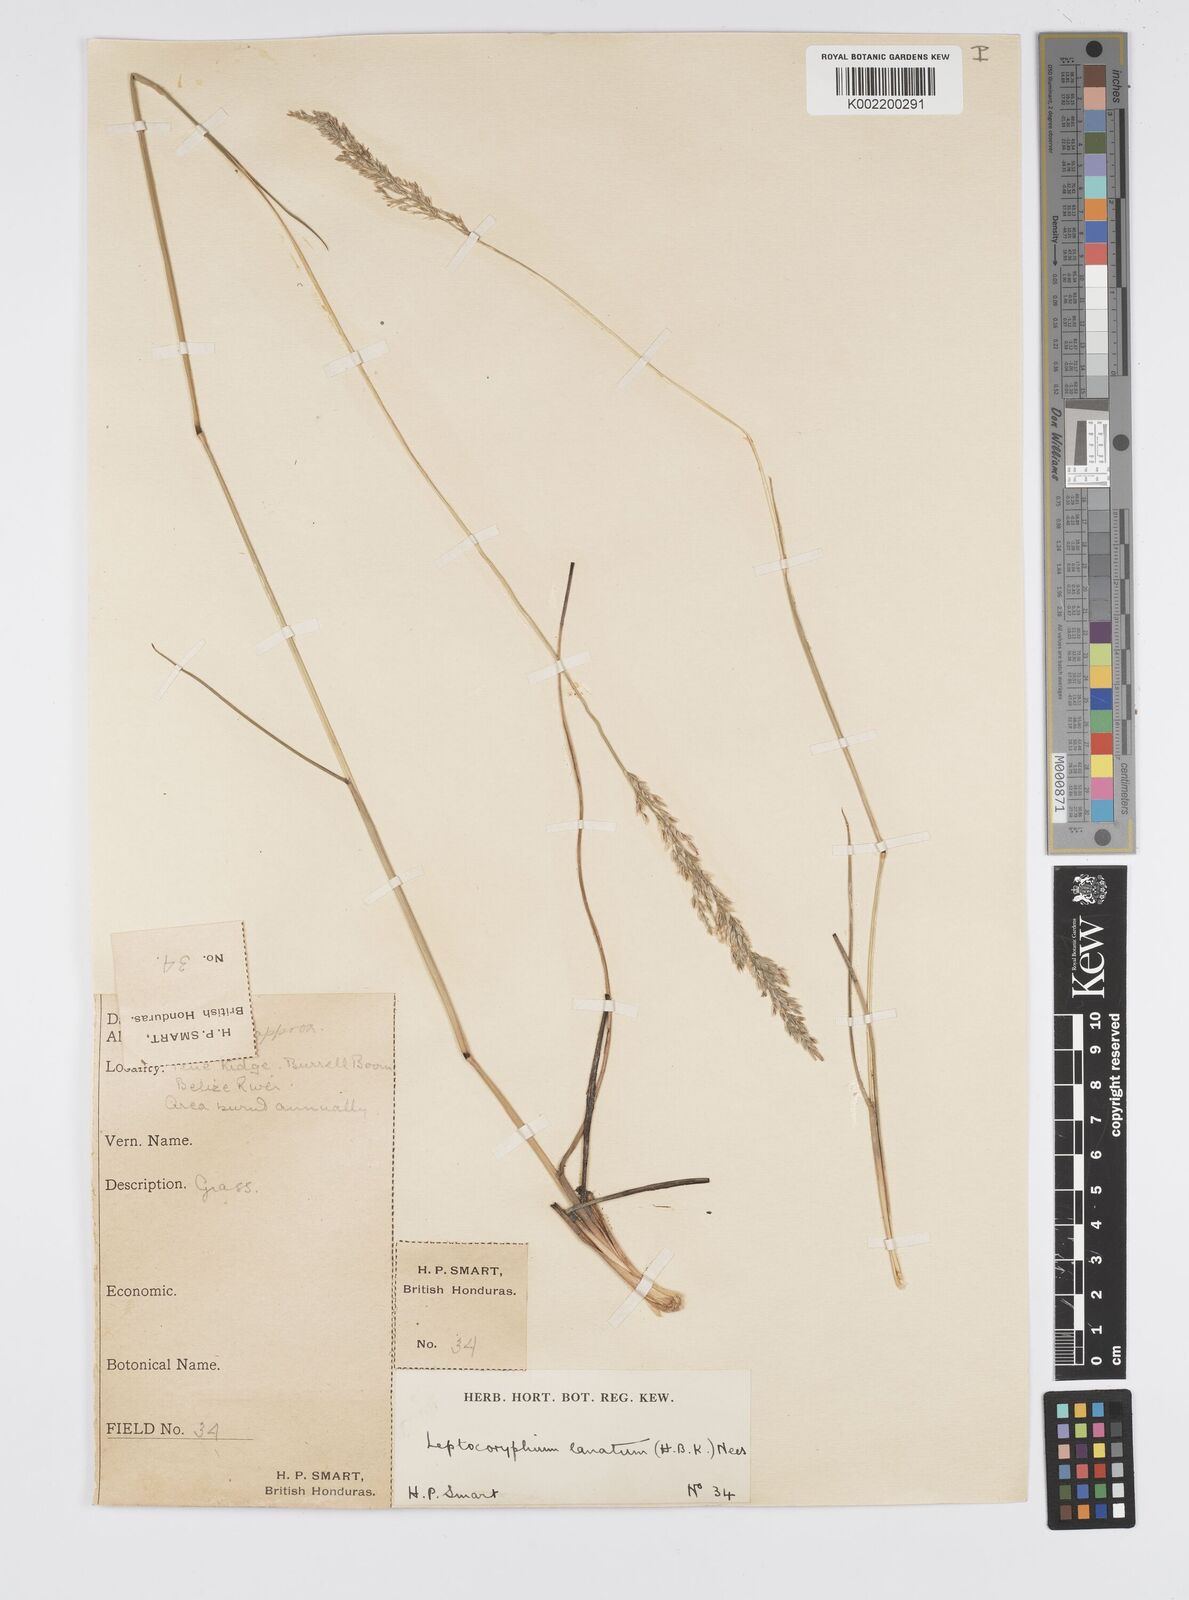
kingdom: Plantae
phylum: Tracheophyta
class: Liliopsida
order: Poales
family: Poaceae
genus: Anthenantia
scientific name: Anthenantia lanata
